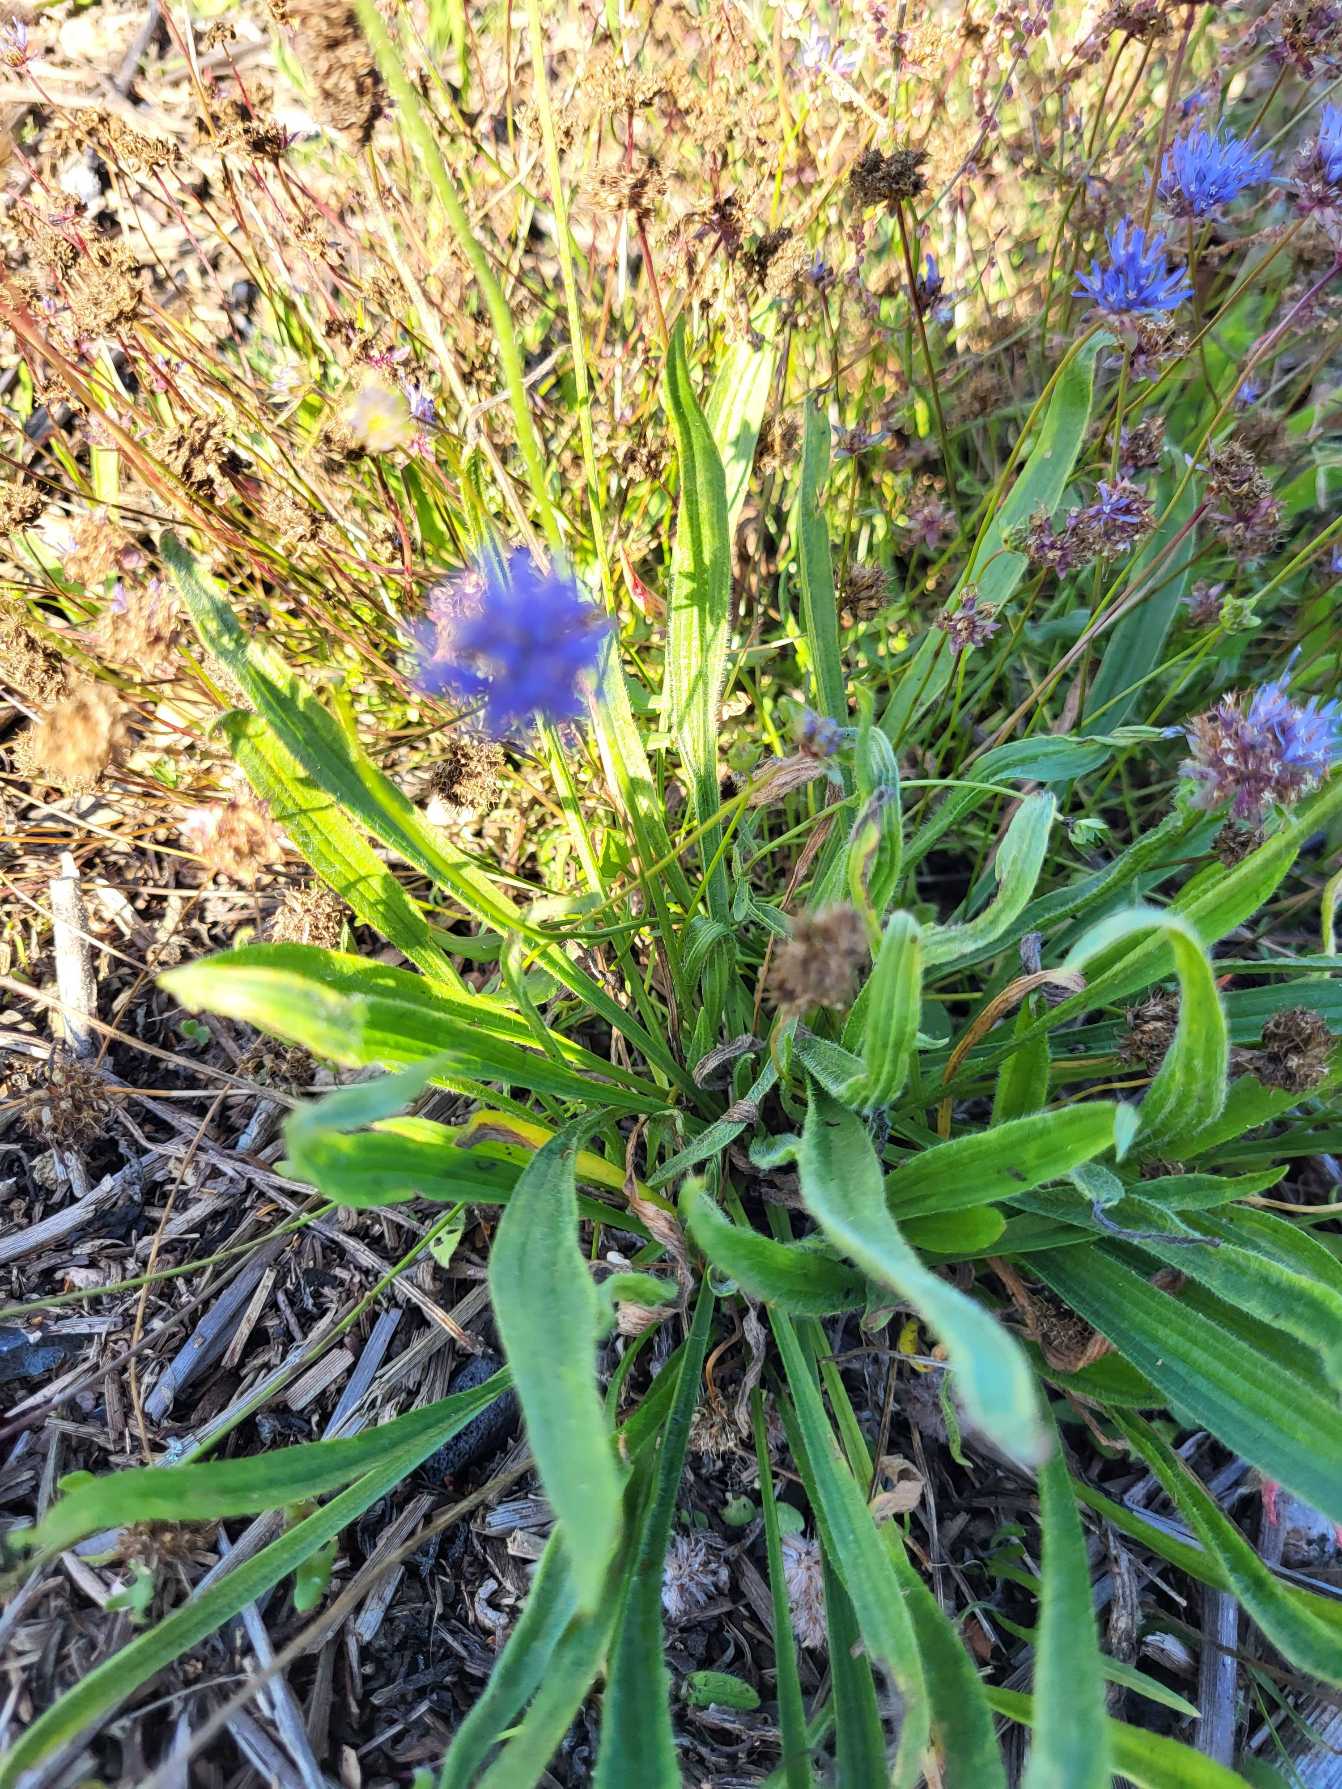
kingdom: Plantae
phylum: Tracheophyta
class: Magnoliopsida
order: Lamiales
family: Plantaginaceae
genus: Plantago
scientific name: Plantago lanceolata
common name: Lancet-vejbred
